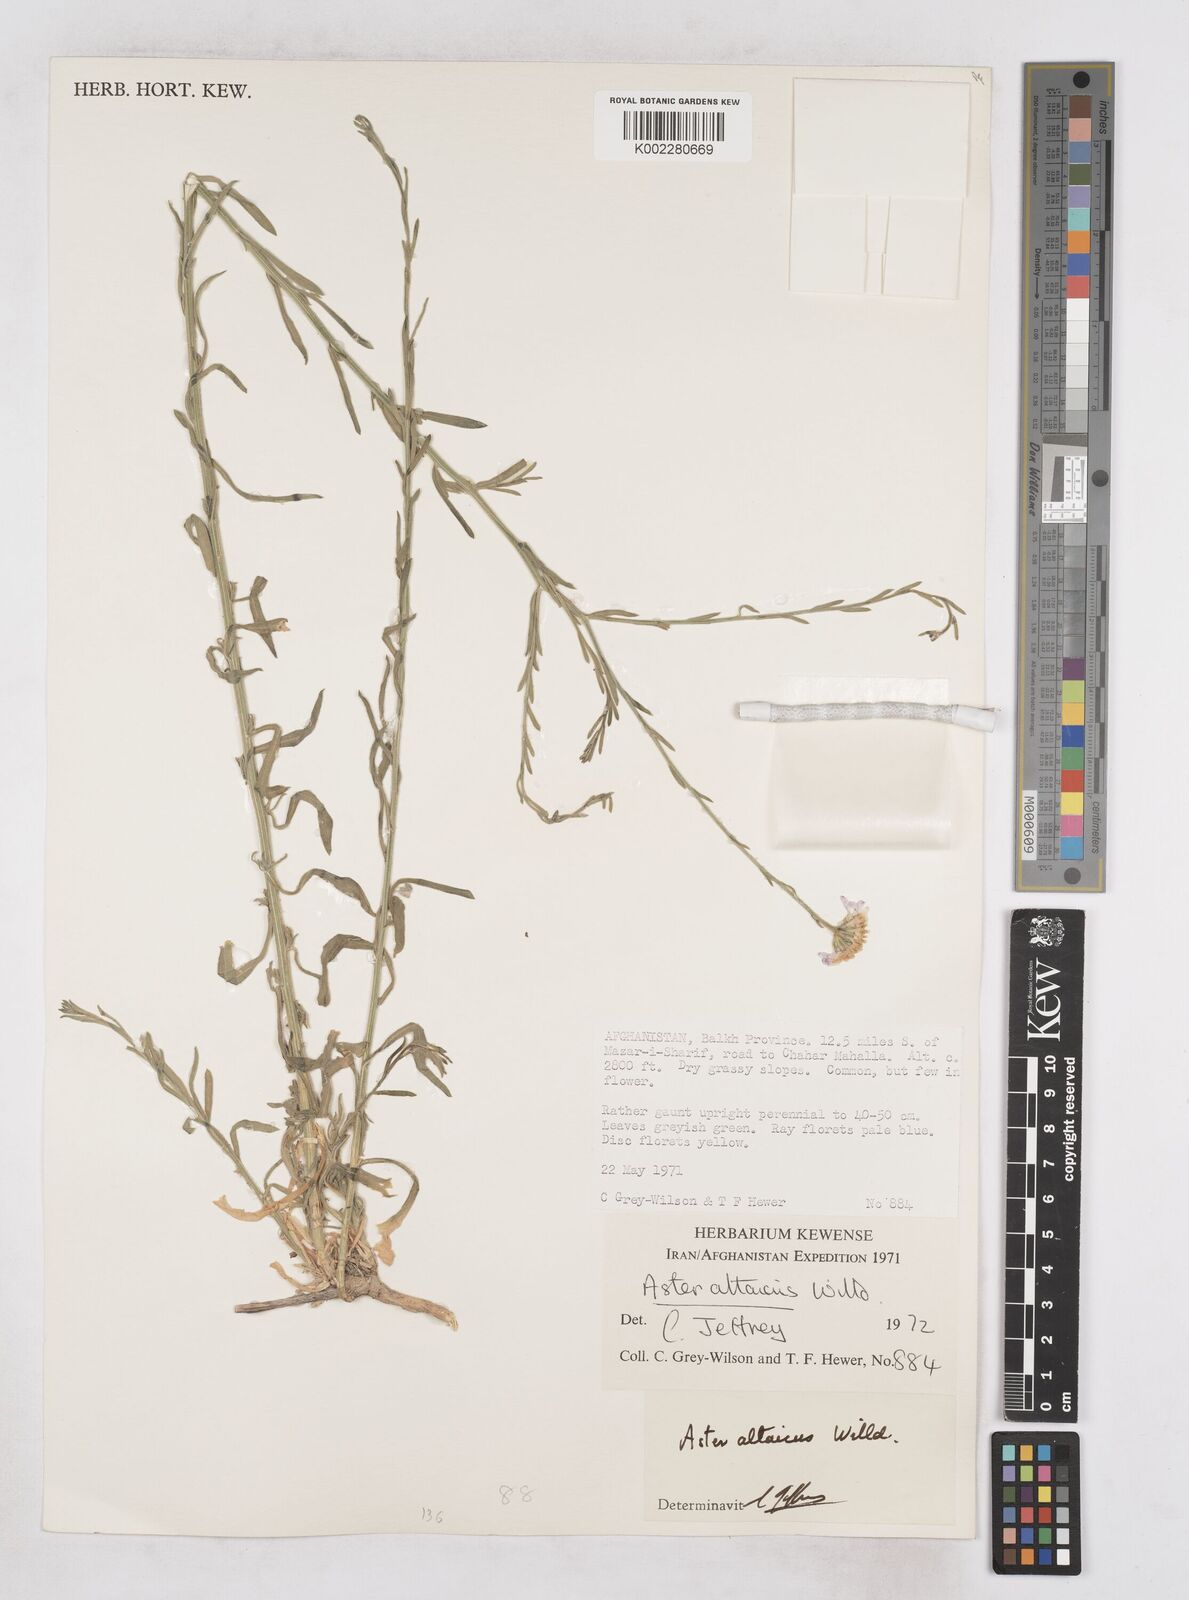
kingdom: Plantae
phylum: Tracheophyta
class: Magnoliopsida
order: Asterales
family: Asteraceae
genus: Heteropappus
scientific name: Heteropappus altaicus
